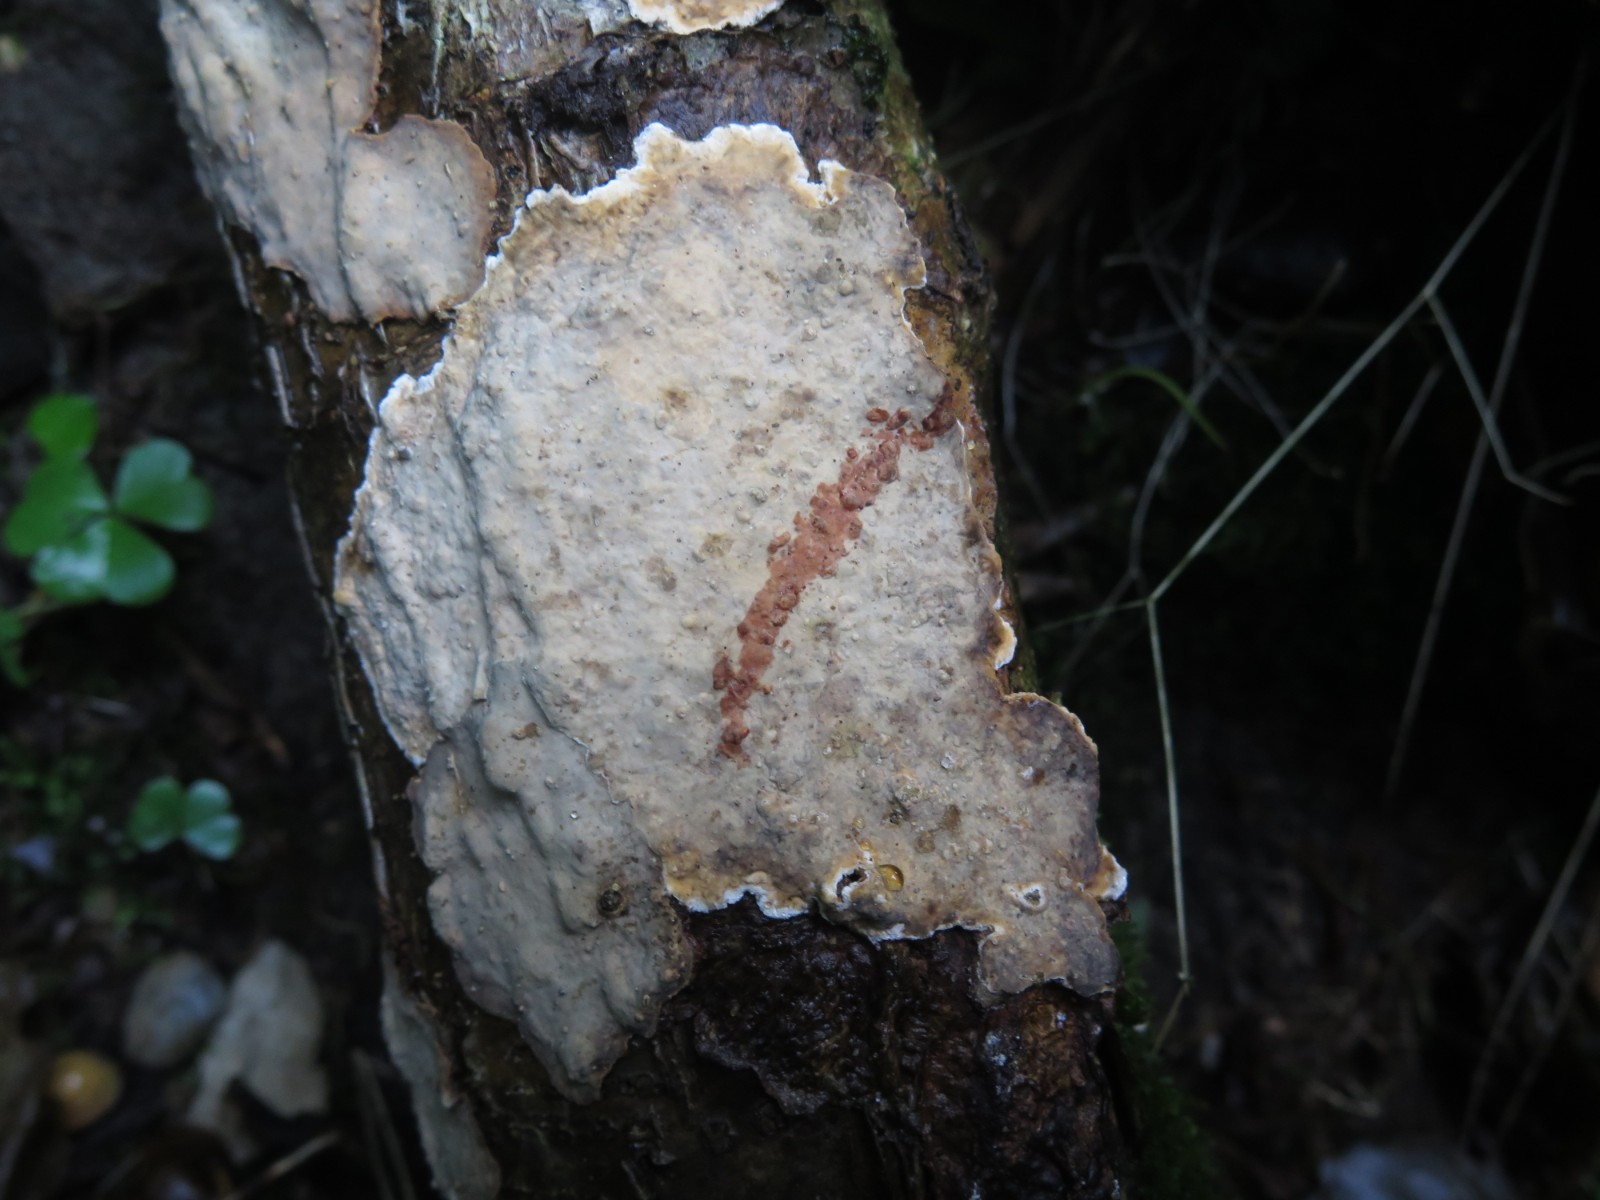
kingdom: Fungi
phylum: Basidiomycota
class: Agaricomycetes
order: Russulales
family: Stereaceae
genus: Stereum
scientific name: Stereum sanguinolentum
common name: blødende lædersvamp
